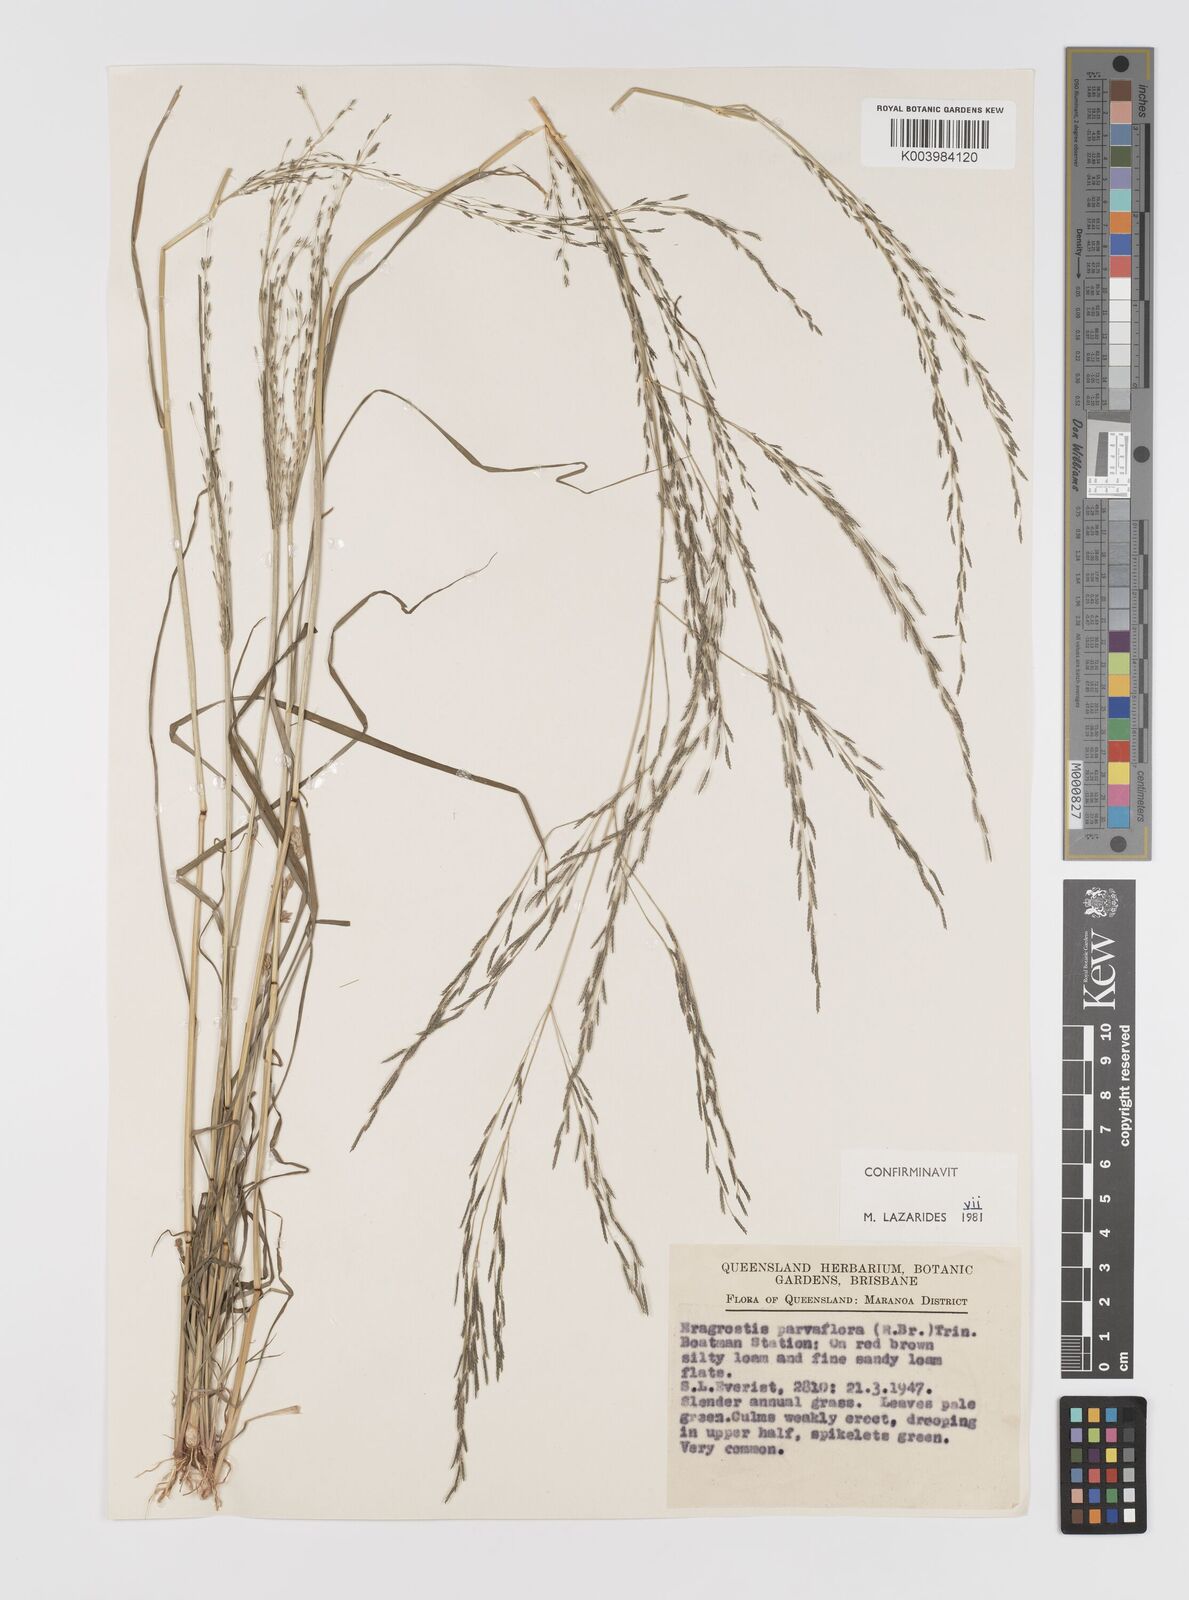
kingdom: Plantae
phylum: Tracheophyta
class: Liliopsida
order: Poales
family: Poaceae
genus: Eragrostis
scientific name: Eragrostis parviflora
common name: Weeping love-grass
